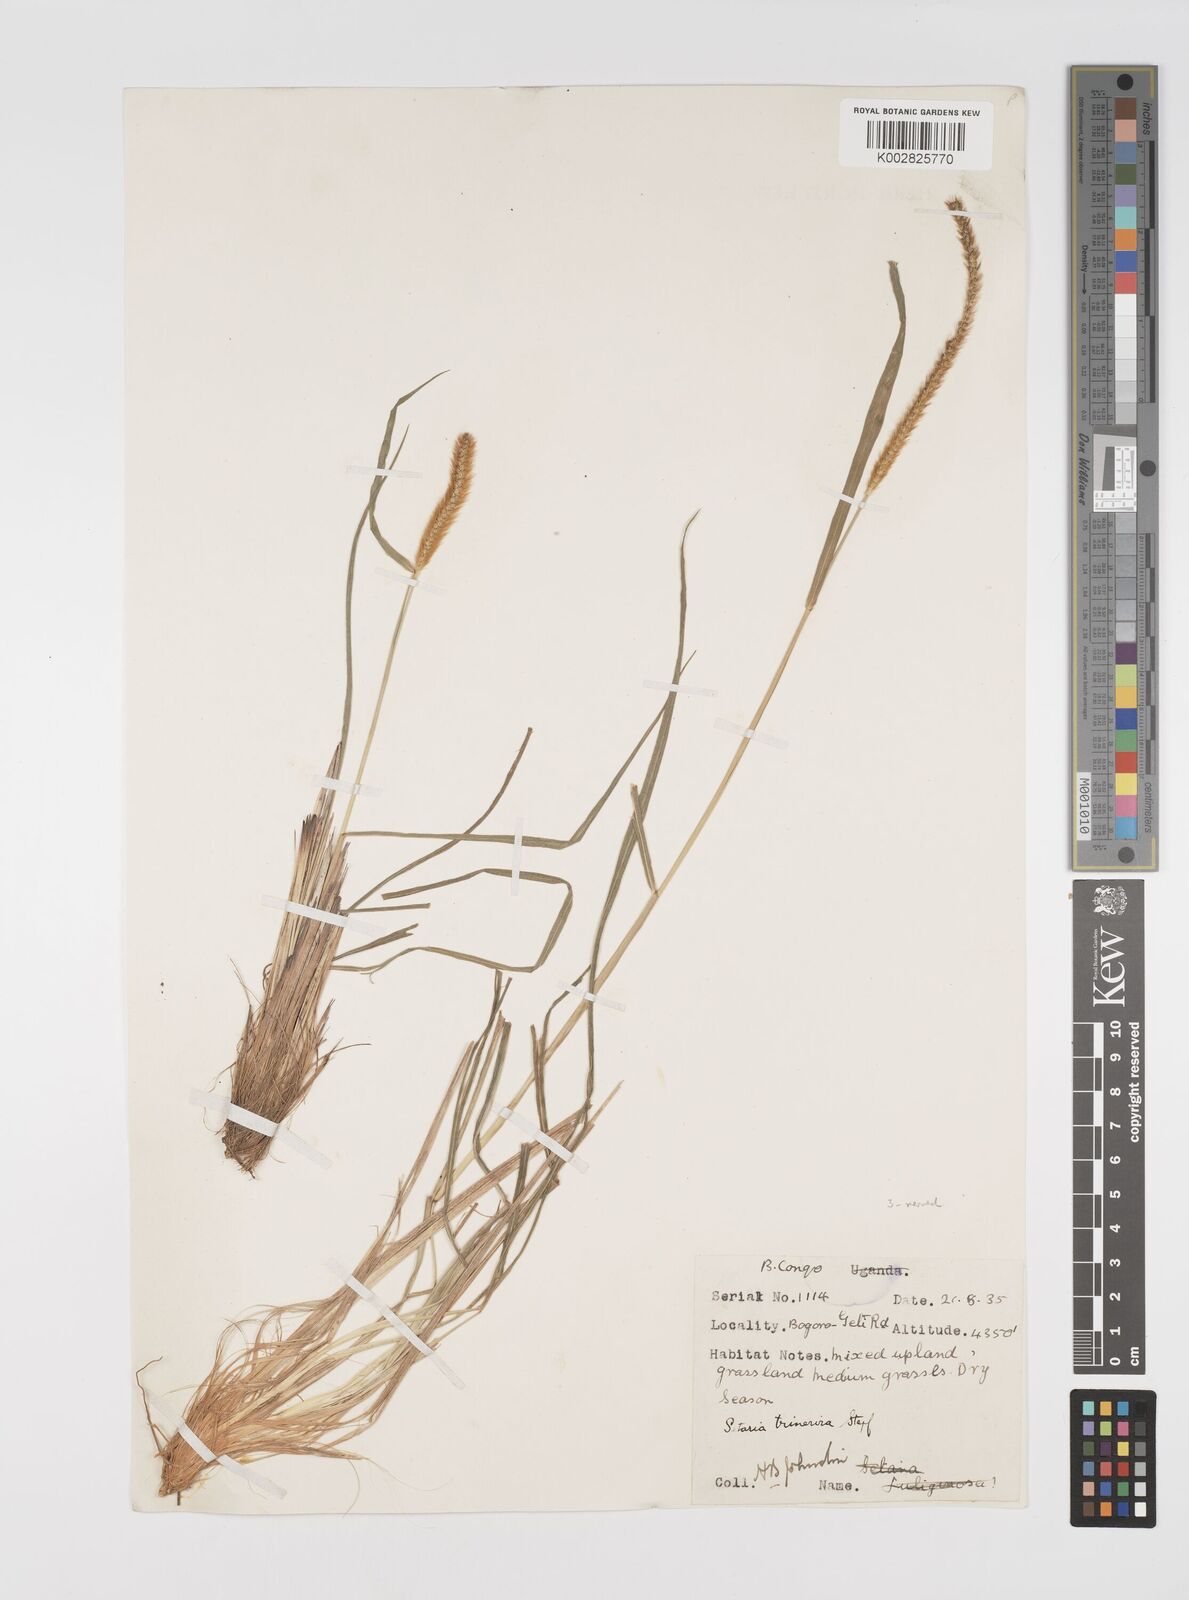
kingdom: Plantae
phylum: Tracheophyta
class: Liliopsida
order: Poales
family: Poaceae
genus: Setaria
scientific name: Setaria sphacelata
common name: African bristlegrass
